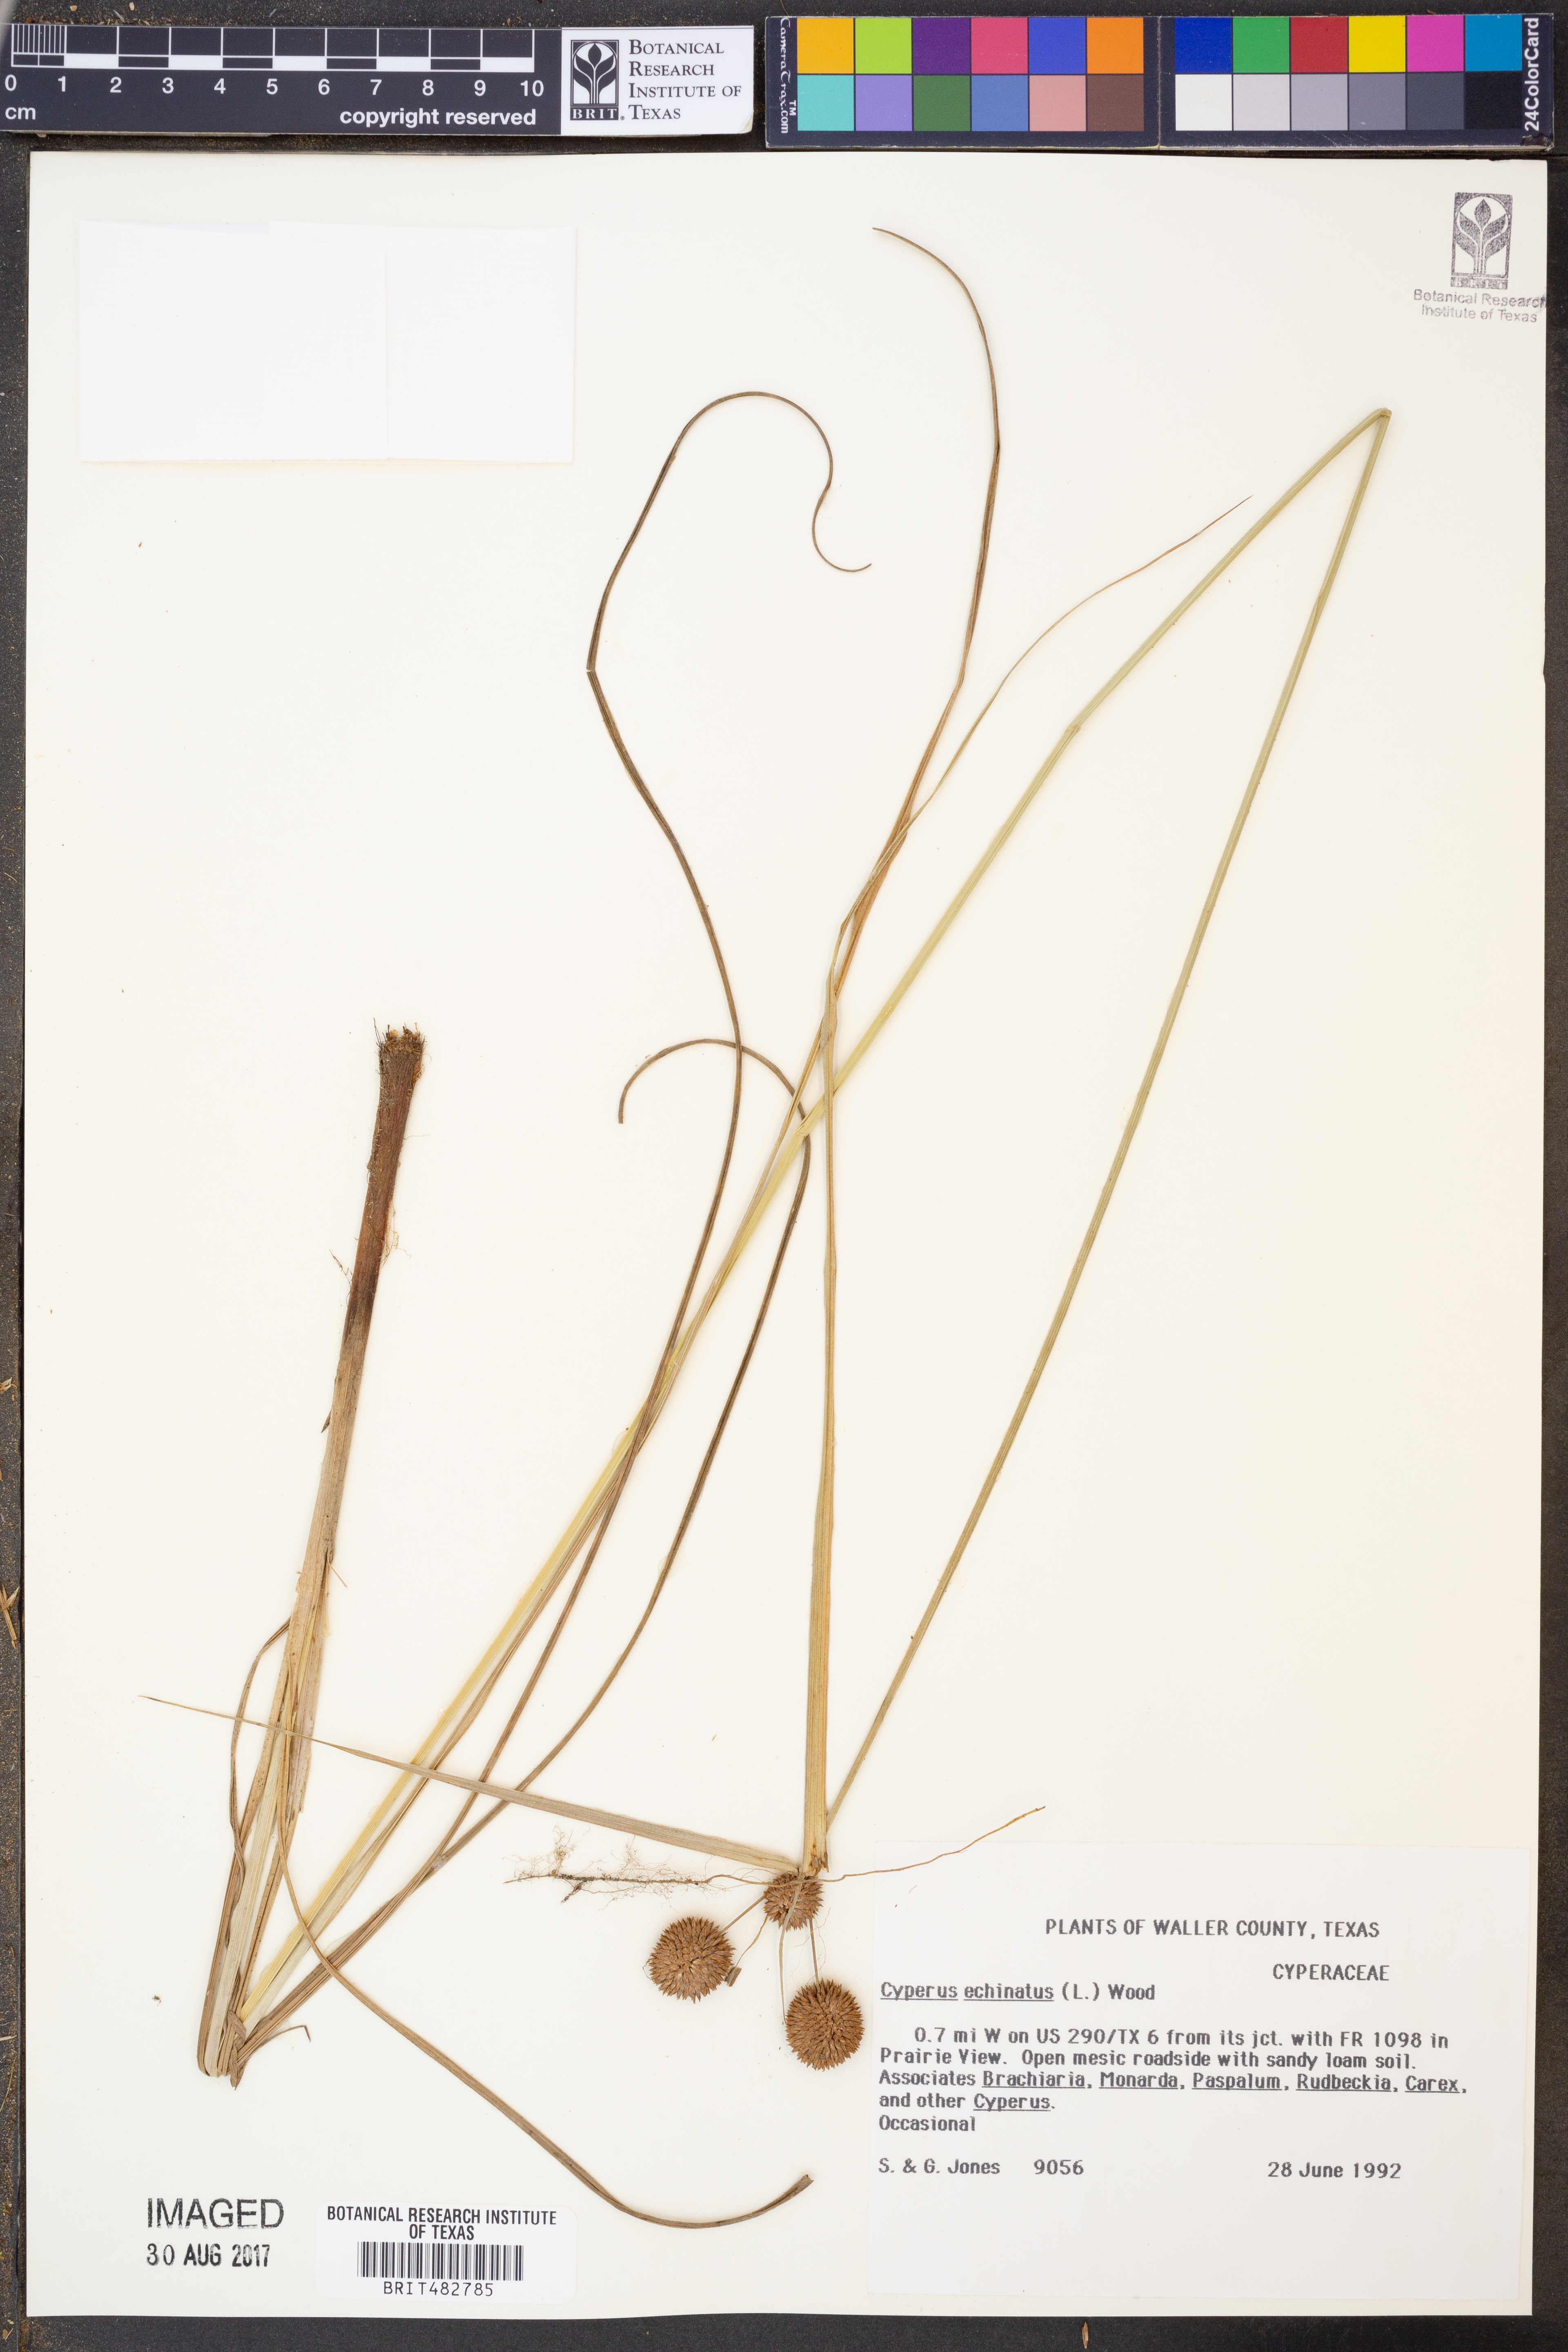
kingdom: Plantae
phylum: Tracheophyta
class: Liliopsida
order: Poales
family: Cyperaceae
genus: Cyperus
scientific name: Cyperus echinatus
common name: Teasel sedge
